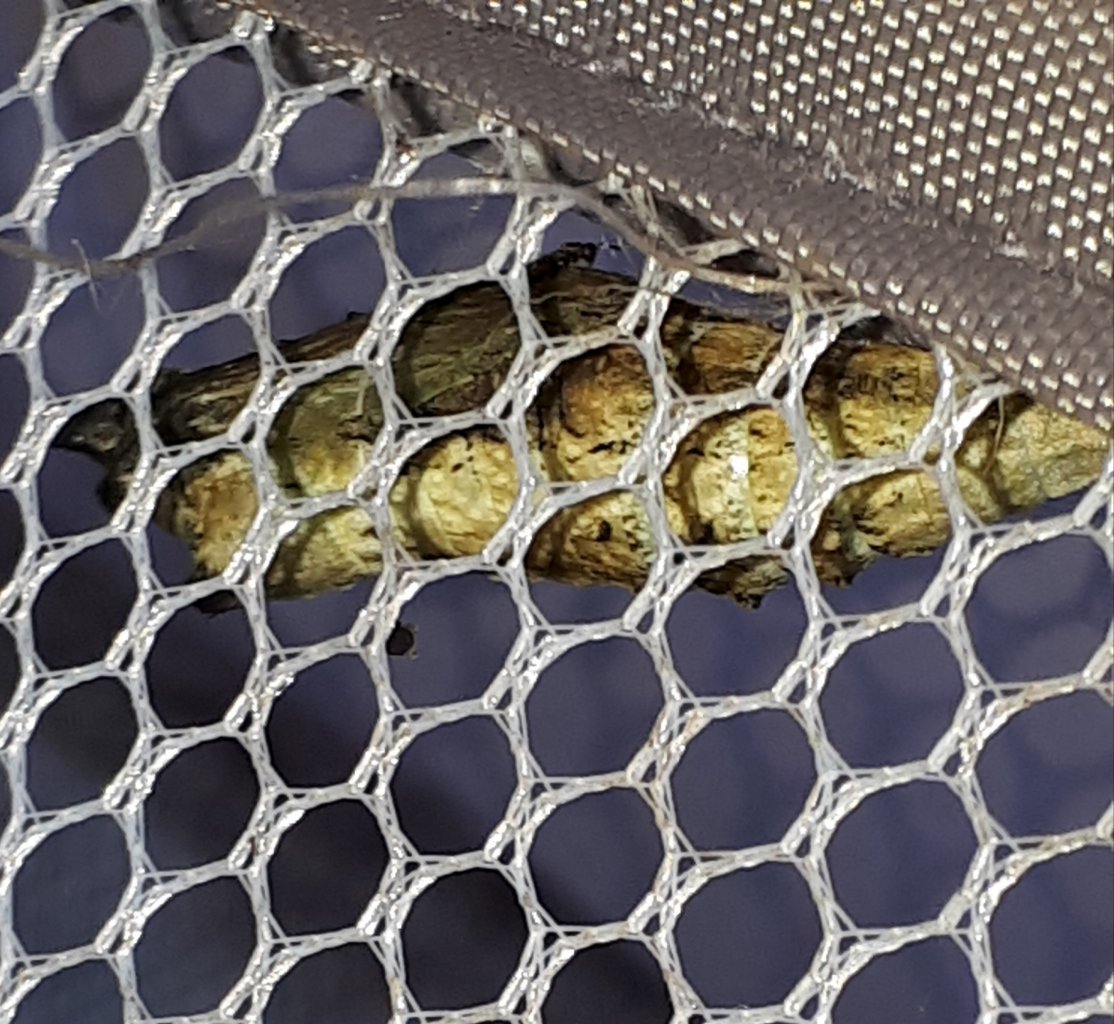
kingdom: Animalia
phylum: Arthropoda
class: Insecta
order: Lepidoptera
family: Papilionidae
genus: Papilio
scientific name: Papilio polyxenes
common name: Black Swallowtail
